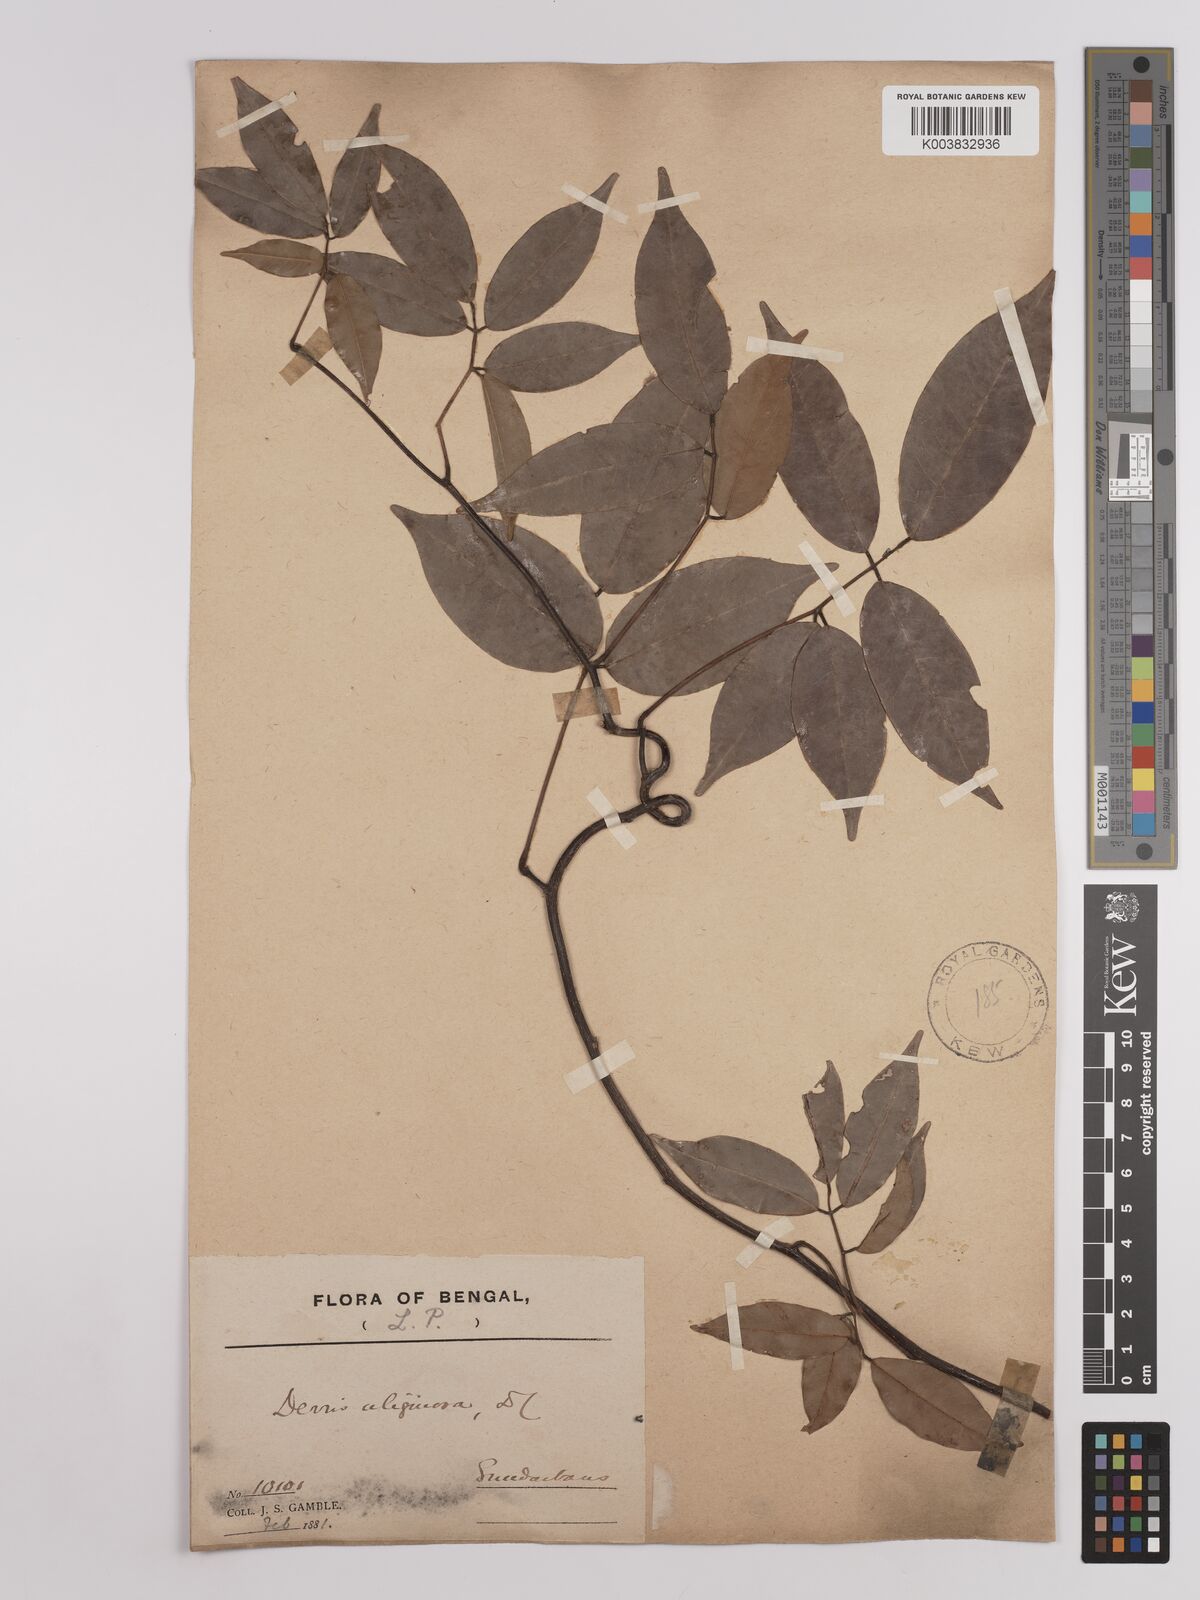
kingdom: Plantae
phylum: Tracheophyta
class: Magnoliopsida
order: Fabales
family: Fabaceae
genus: Derris
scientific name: Derris trifoliata
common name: Three-leaf derris
